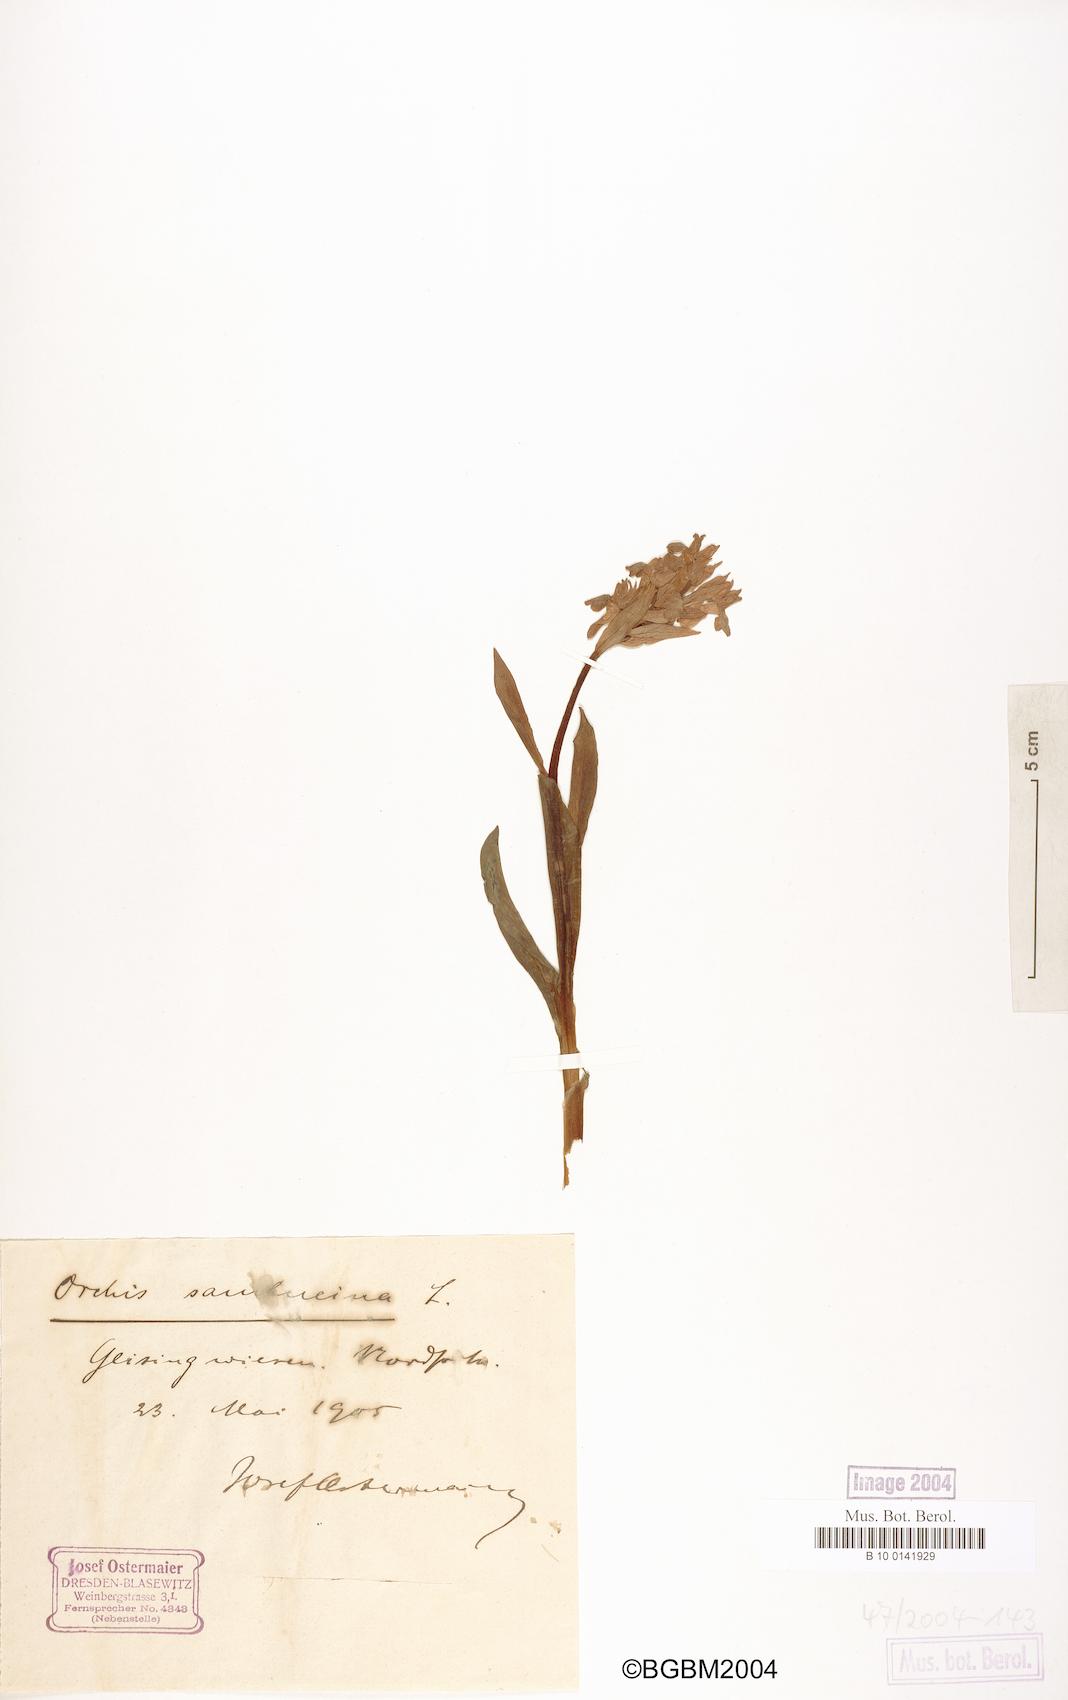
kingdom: Plantae
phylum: Tracheophyta
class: Liliopsida
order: Asparagales
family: Orchidaceae
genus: Dactylorhiza
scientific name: Dactylorhiza sambucina
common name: Elder-flowered orchid
